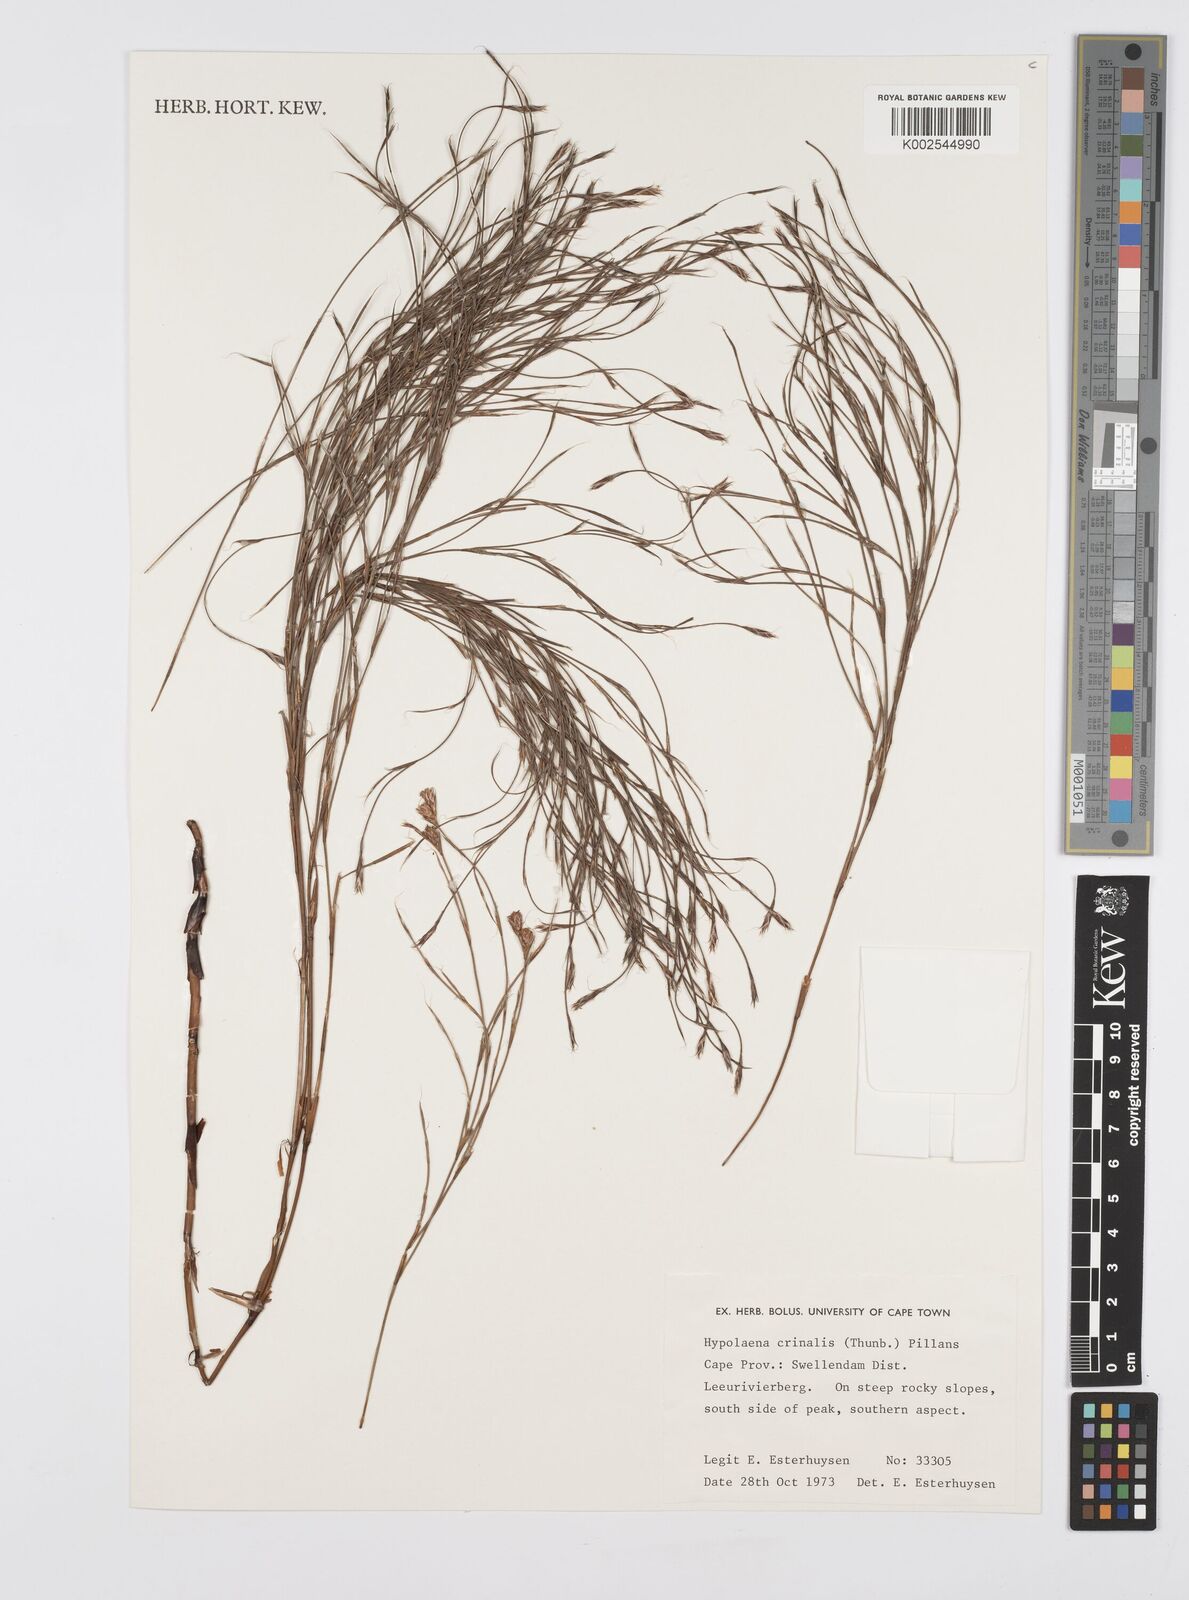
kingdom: Plantae
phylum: Tracheophyta
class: Liliopsida
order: Poales
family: Restionaceae
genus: Anthochortus
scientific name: Anthochortus crinalis
